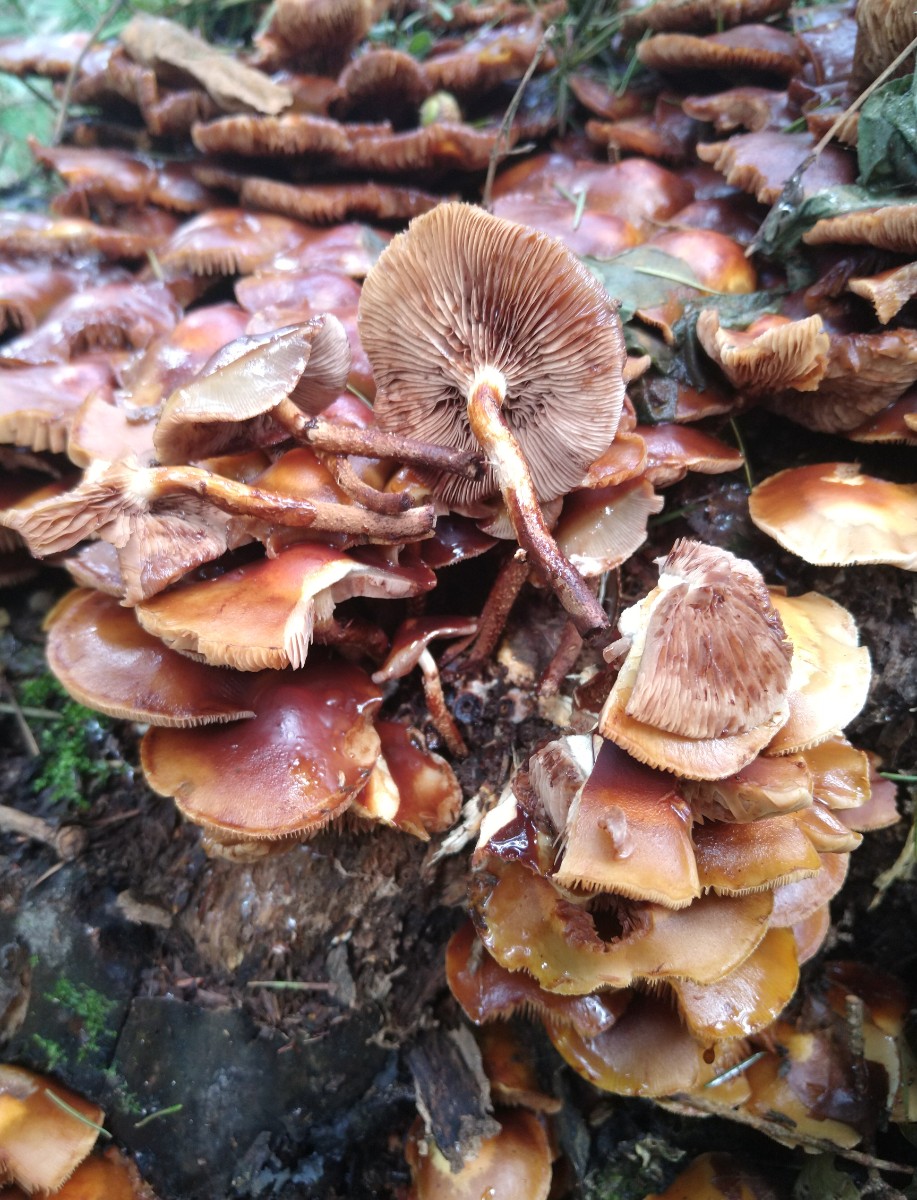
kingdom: Fungi
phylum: Basidiomycota
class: Agaricomycetes
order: Agaricales
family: Strophariaceae
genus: Kuehneromyces
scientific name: Kuehneromyces mutabilis
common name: foranderlig skælhat
